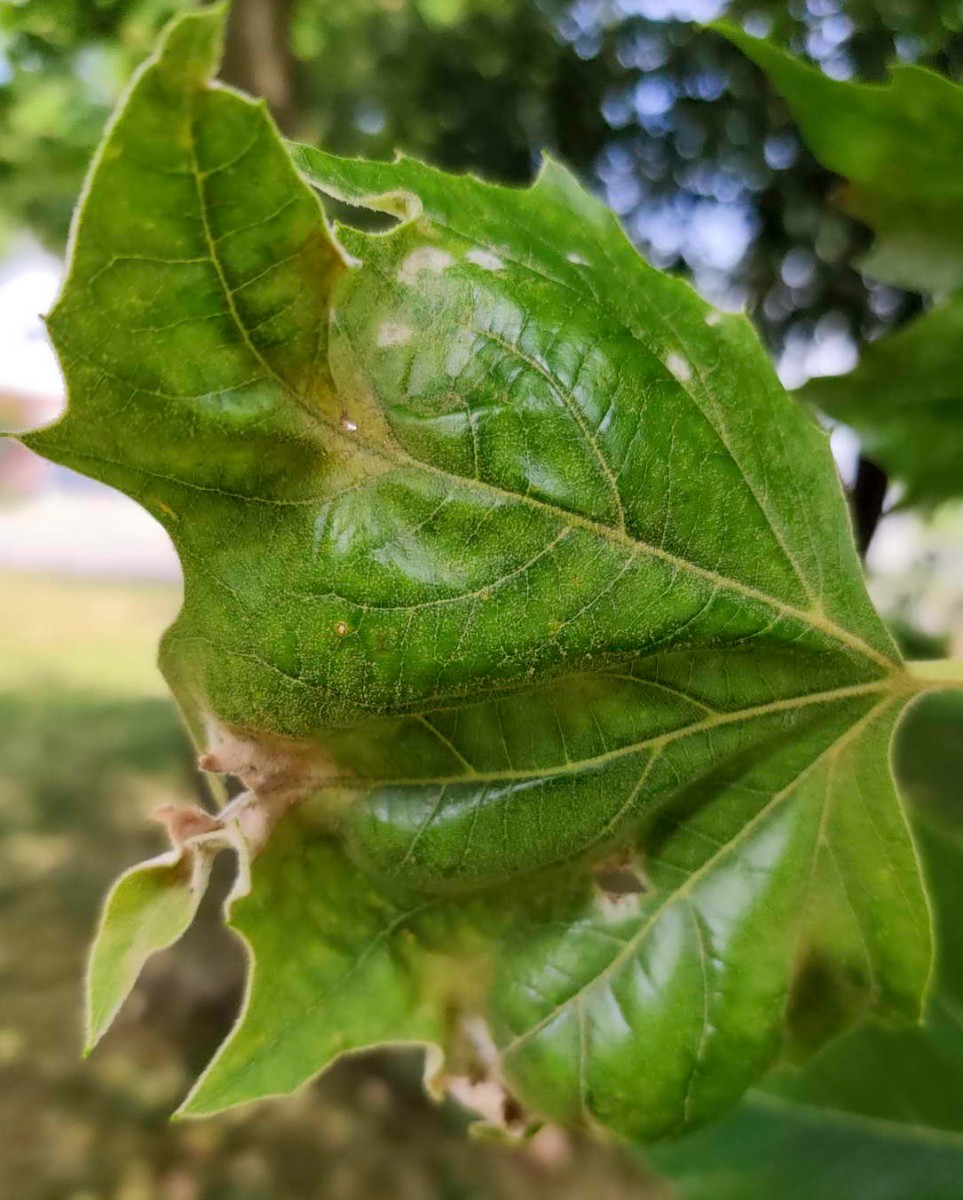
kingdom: Fungi
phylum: Ascomycota
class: Leotiomycetes
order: Helotiales
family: Erysiphaceae
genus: Erysiphe
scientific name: Erysiphe platani
